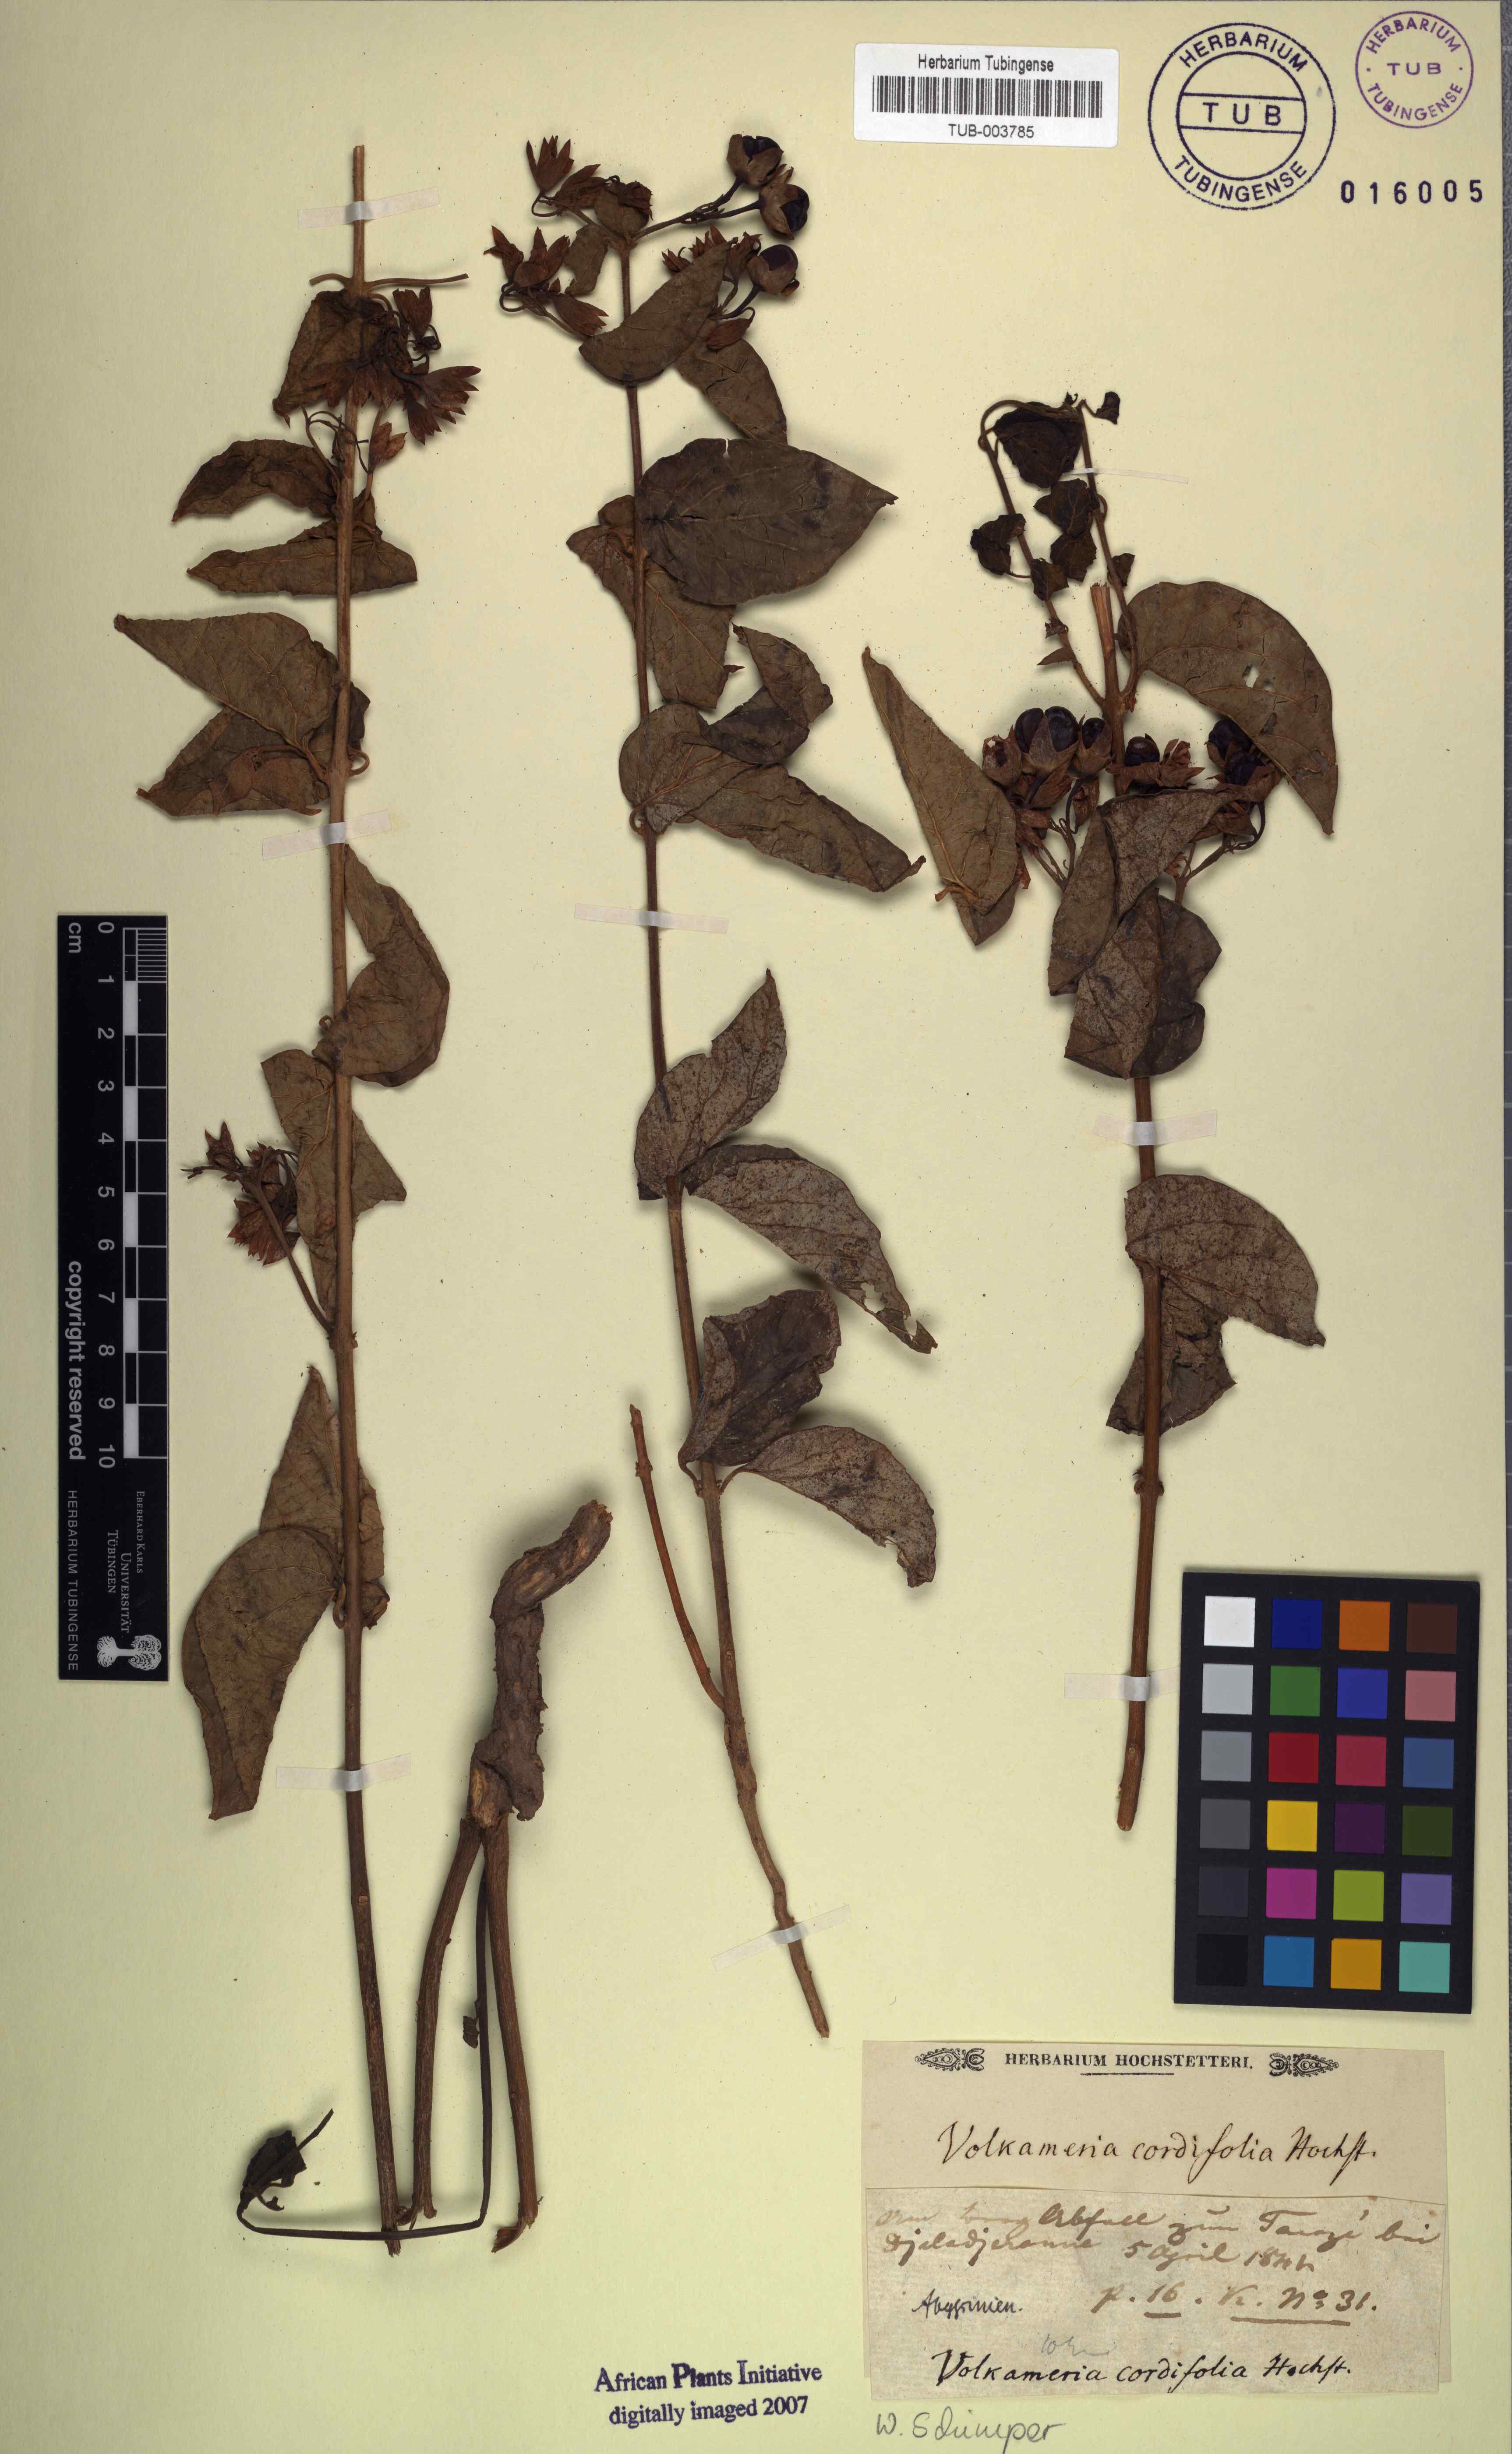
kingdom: Plantae
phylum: Tracheophyta
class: Magnoliopsida
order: Lamiales
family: Lamiaceae
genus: Clerodendrum
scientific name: Clerodendrum umbellatum
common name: Umbel clerodendrum
